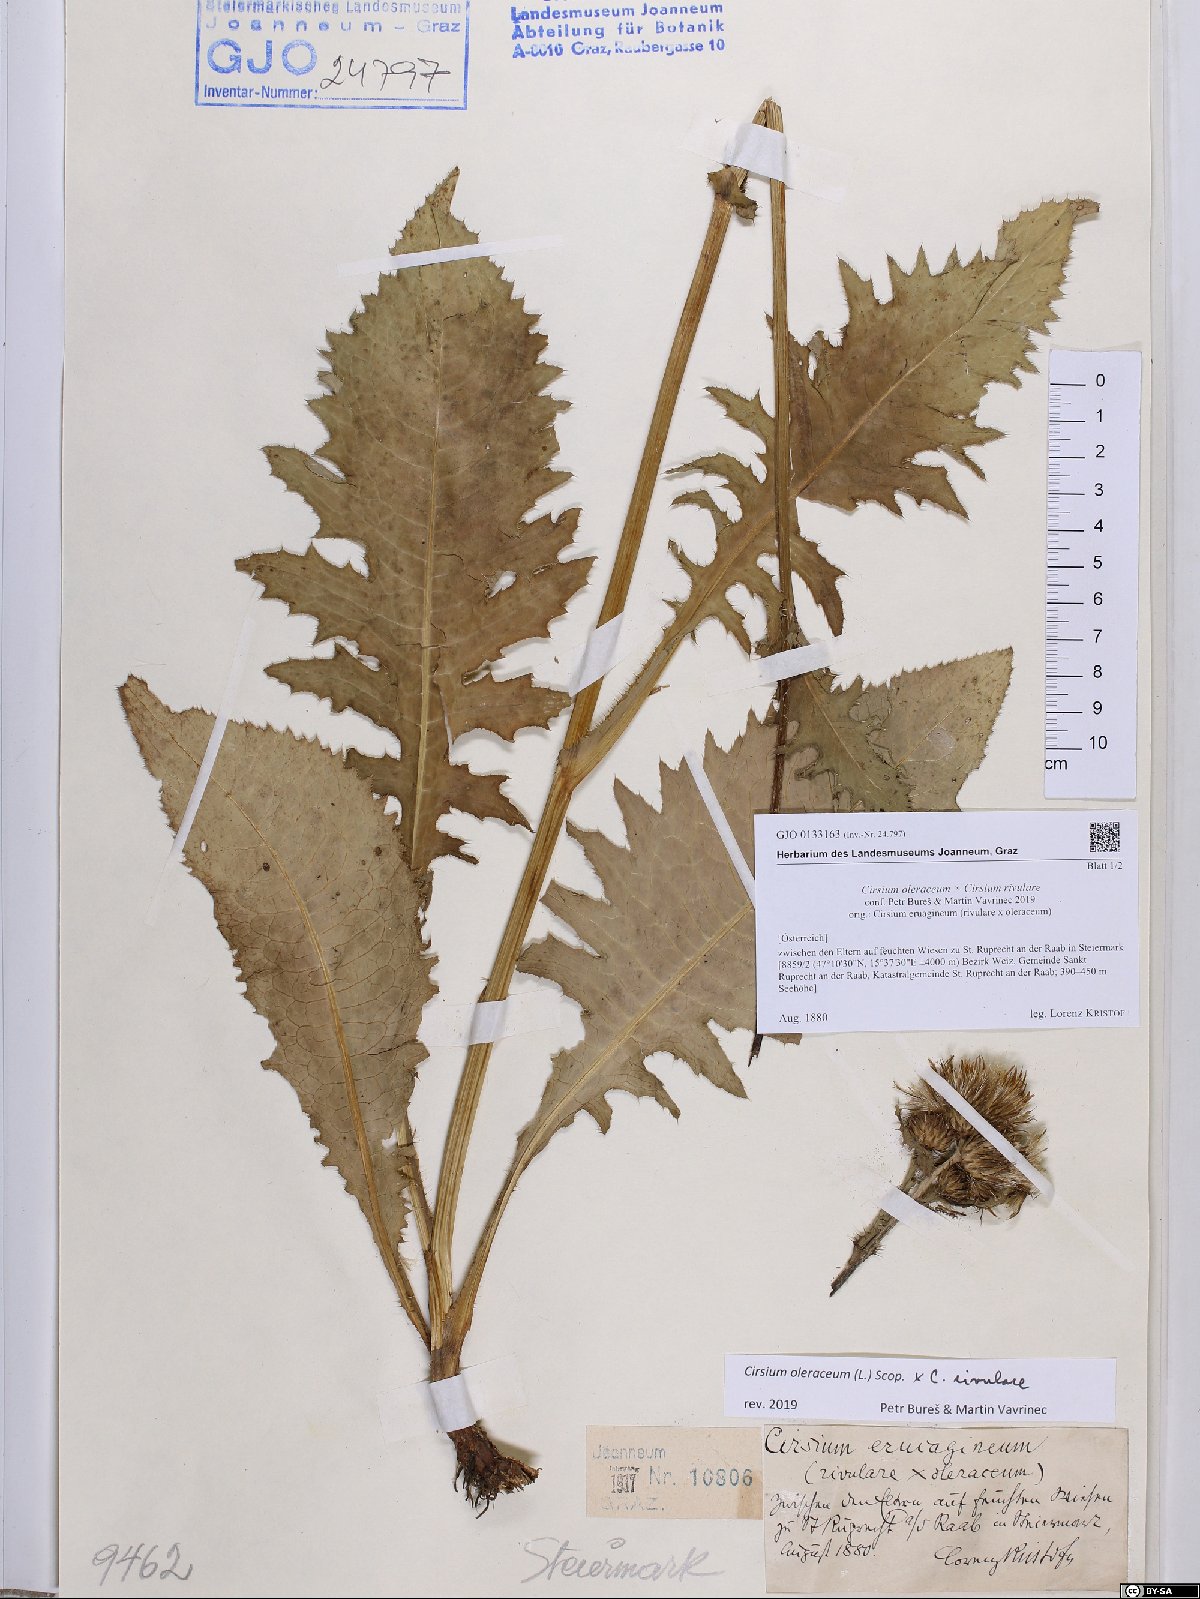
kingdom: Plantae
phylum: Tracheophyta
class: Magnoliopsida
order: Asterales
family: Asteraceae
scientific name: Asteraceae
